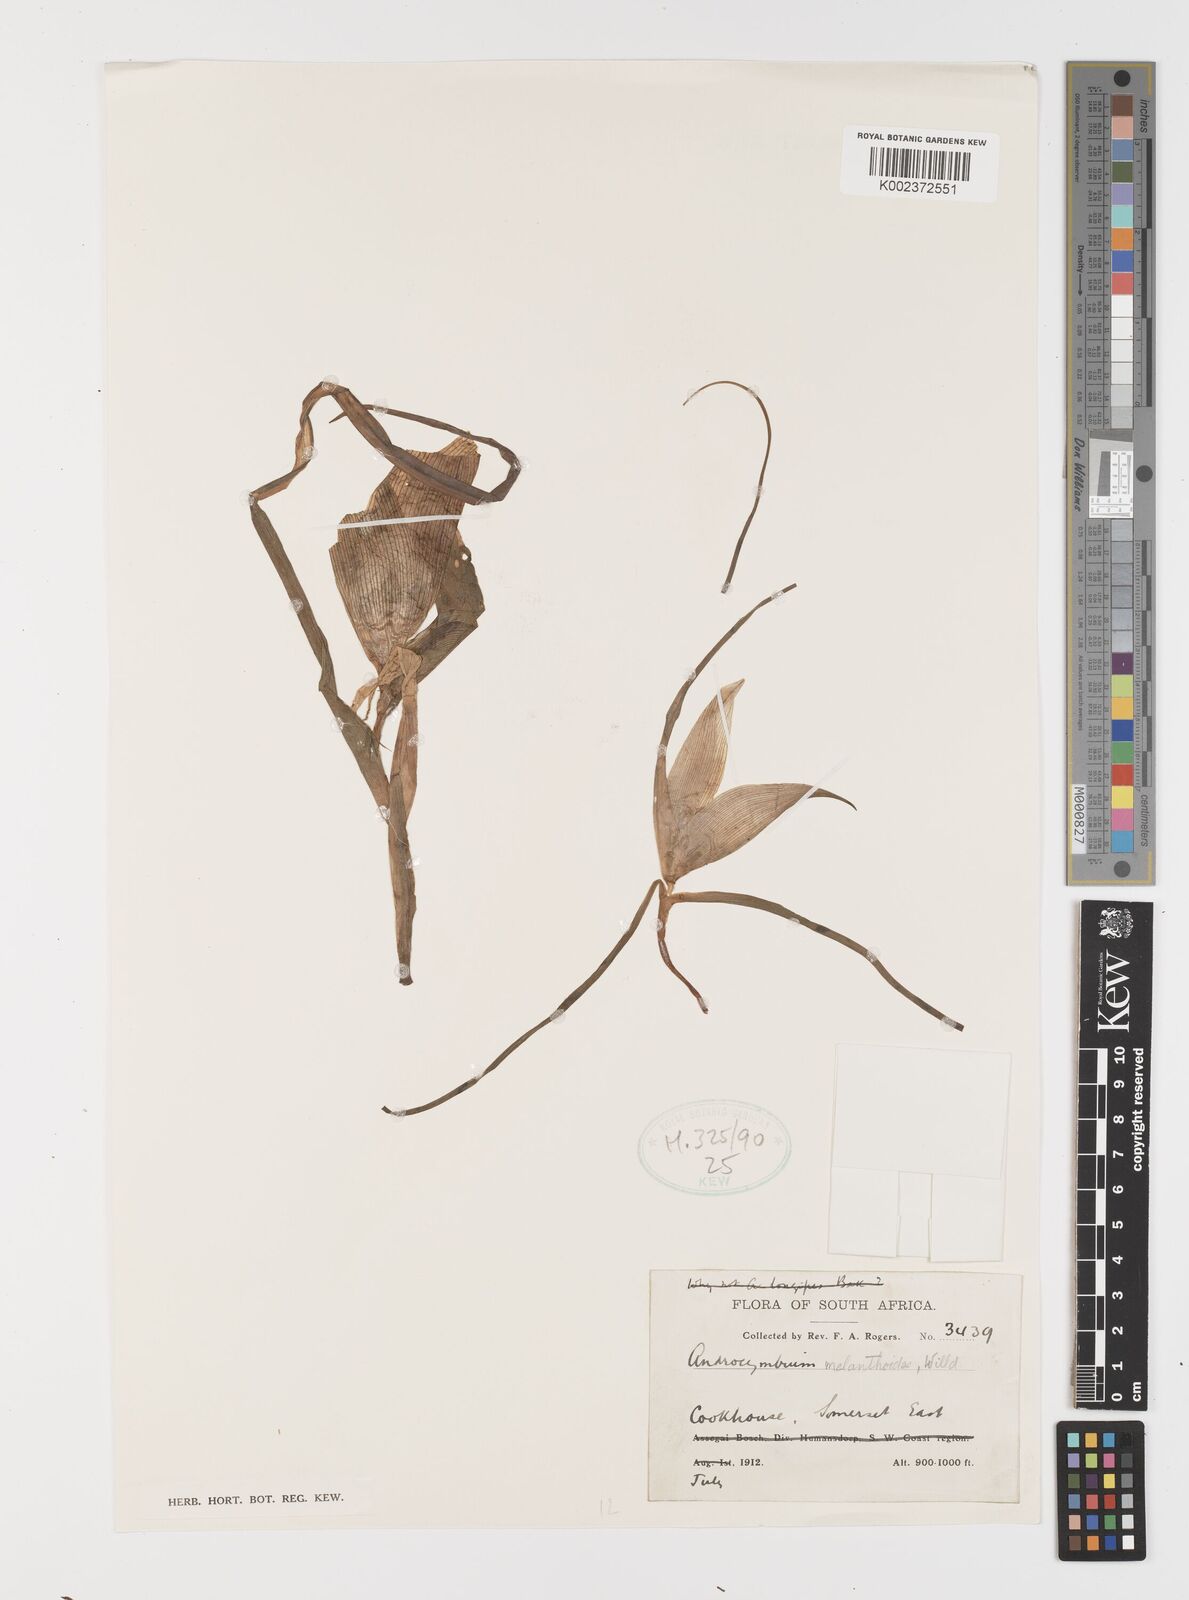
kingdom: Plantae
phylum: Tracheophyta
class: Liliopsida
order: Liliales
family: Colchicaceae
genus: Colchicum
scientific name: Colchicum melanthioides
